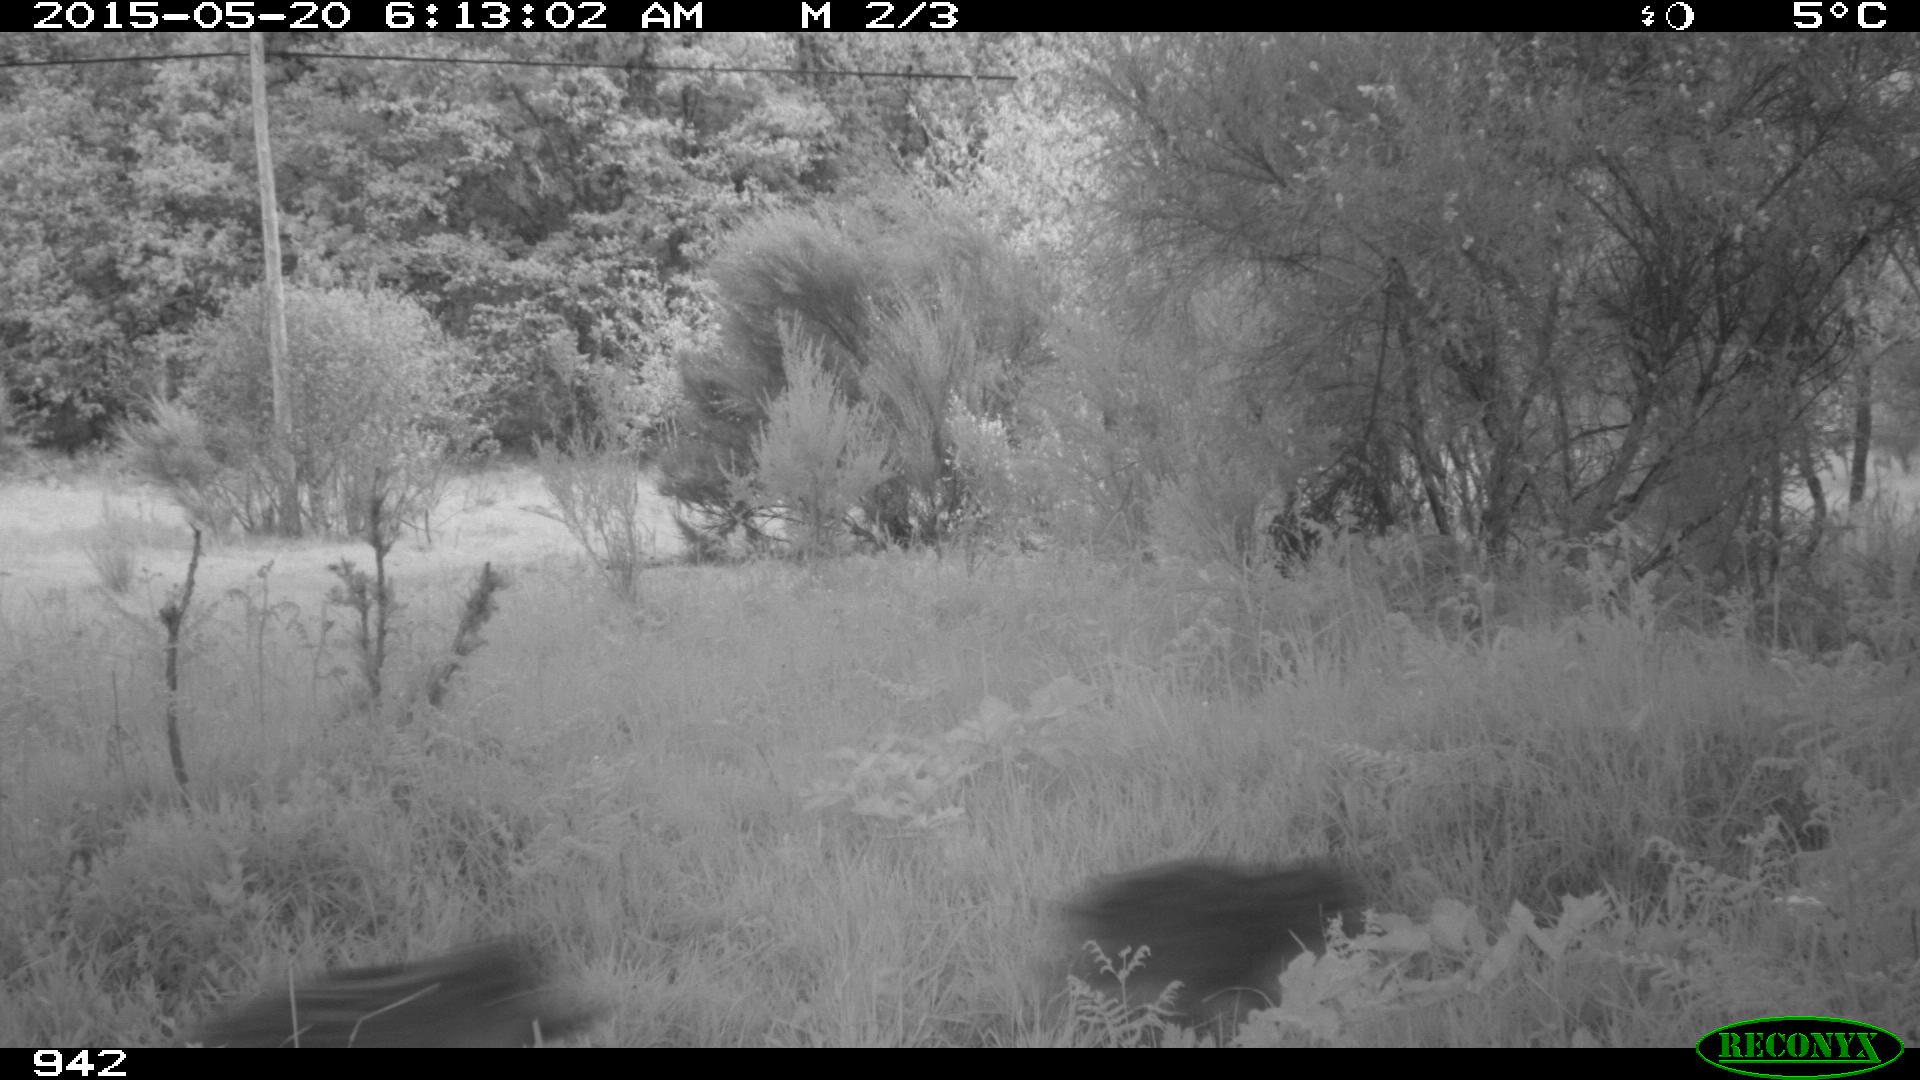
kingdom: Animalia
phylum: Chordata
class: Mammalia
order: Artiodactyla
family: Suidae
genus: Sus
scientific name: Sus scrofa
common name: Wild boar
